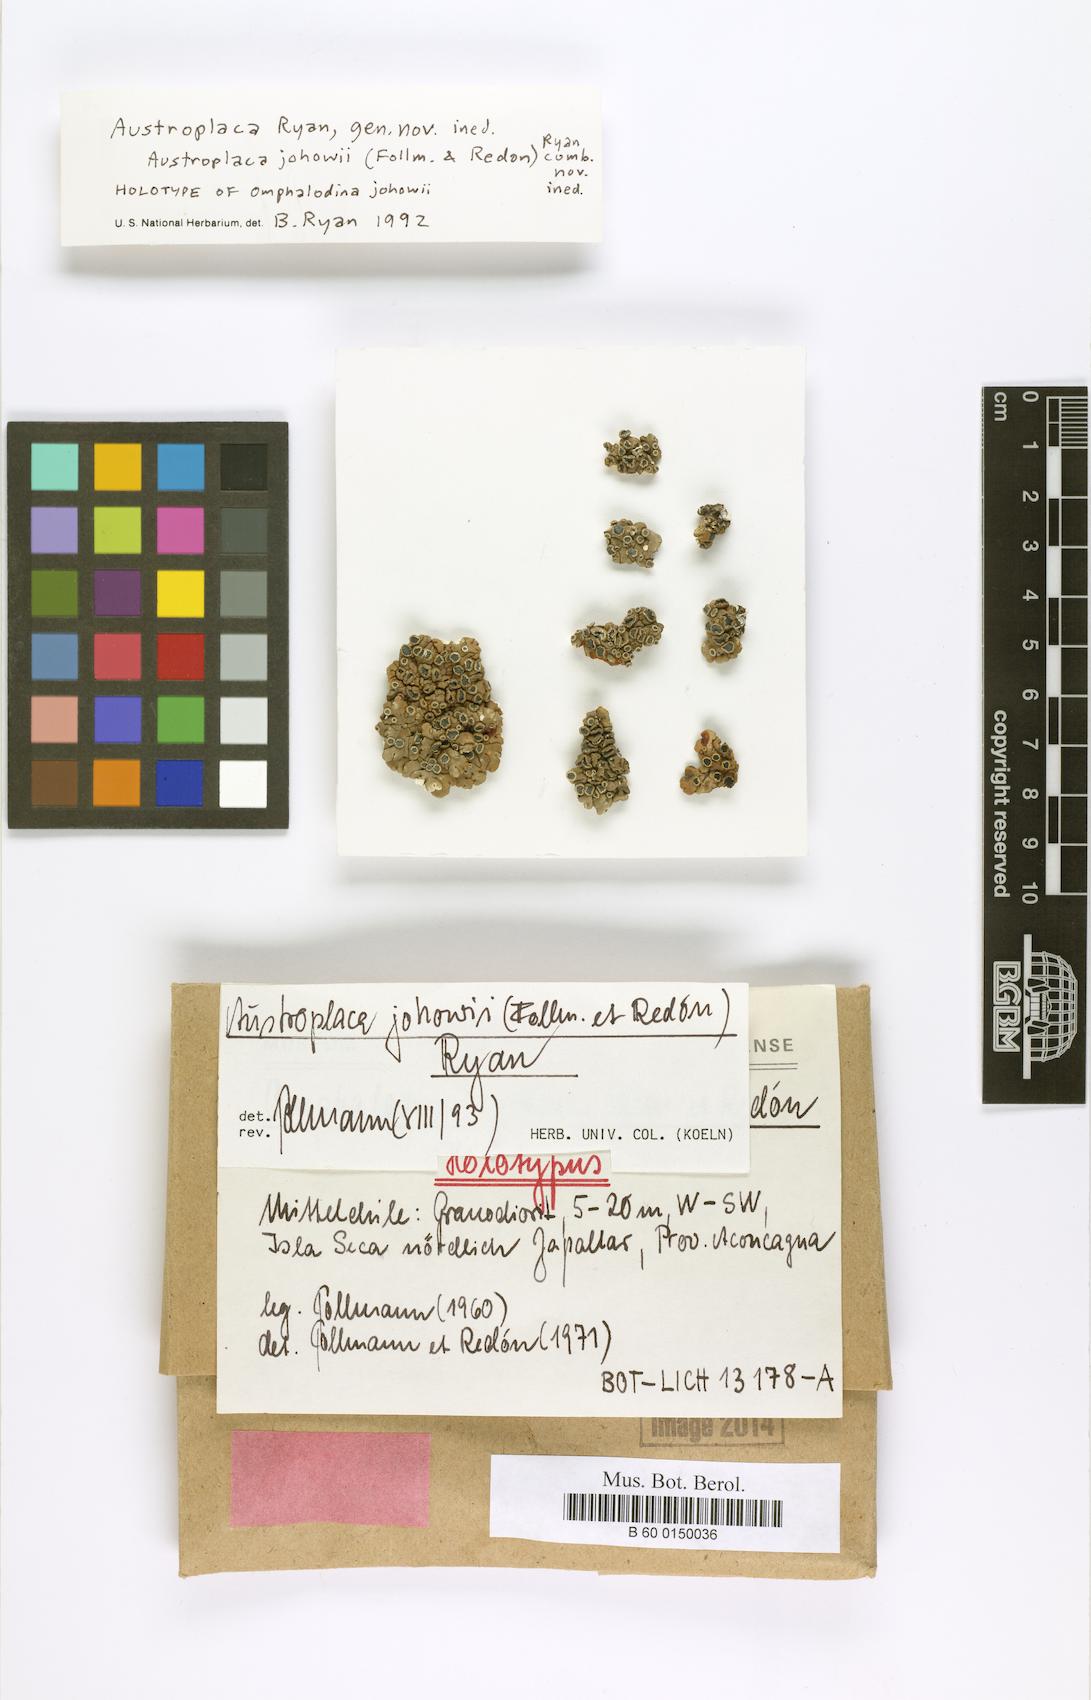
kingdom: Fungi
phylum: Ascomycota
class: Lecanoromycetes
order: Lecanorales
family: Lecanoraceae
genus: Omphalodina
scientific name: Omphalodina
